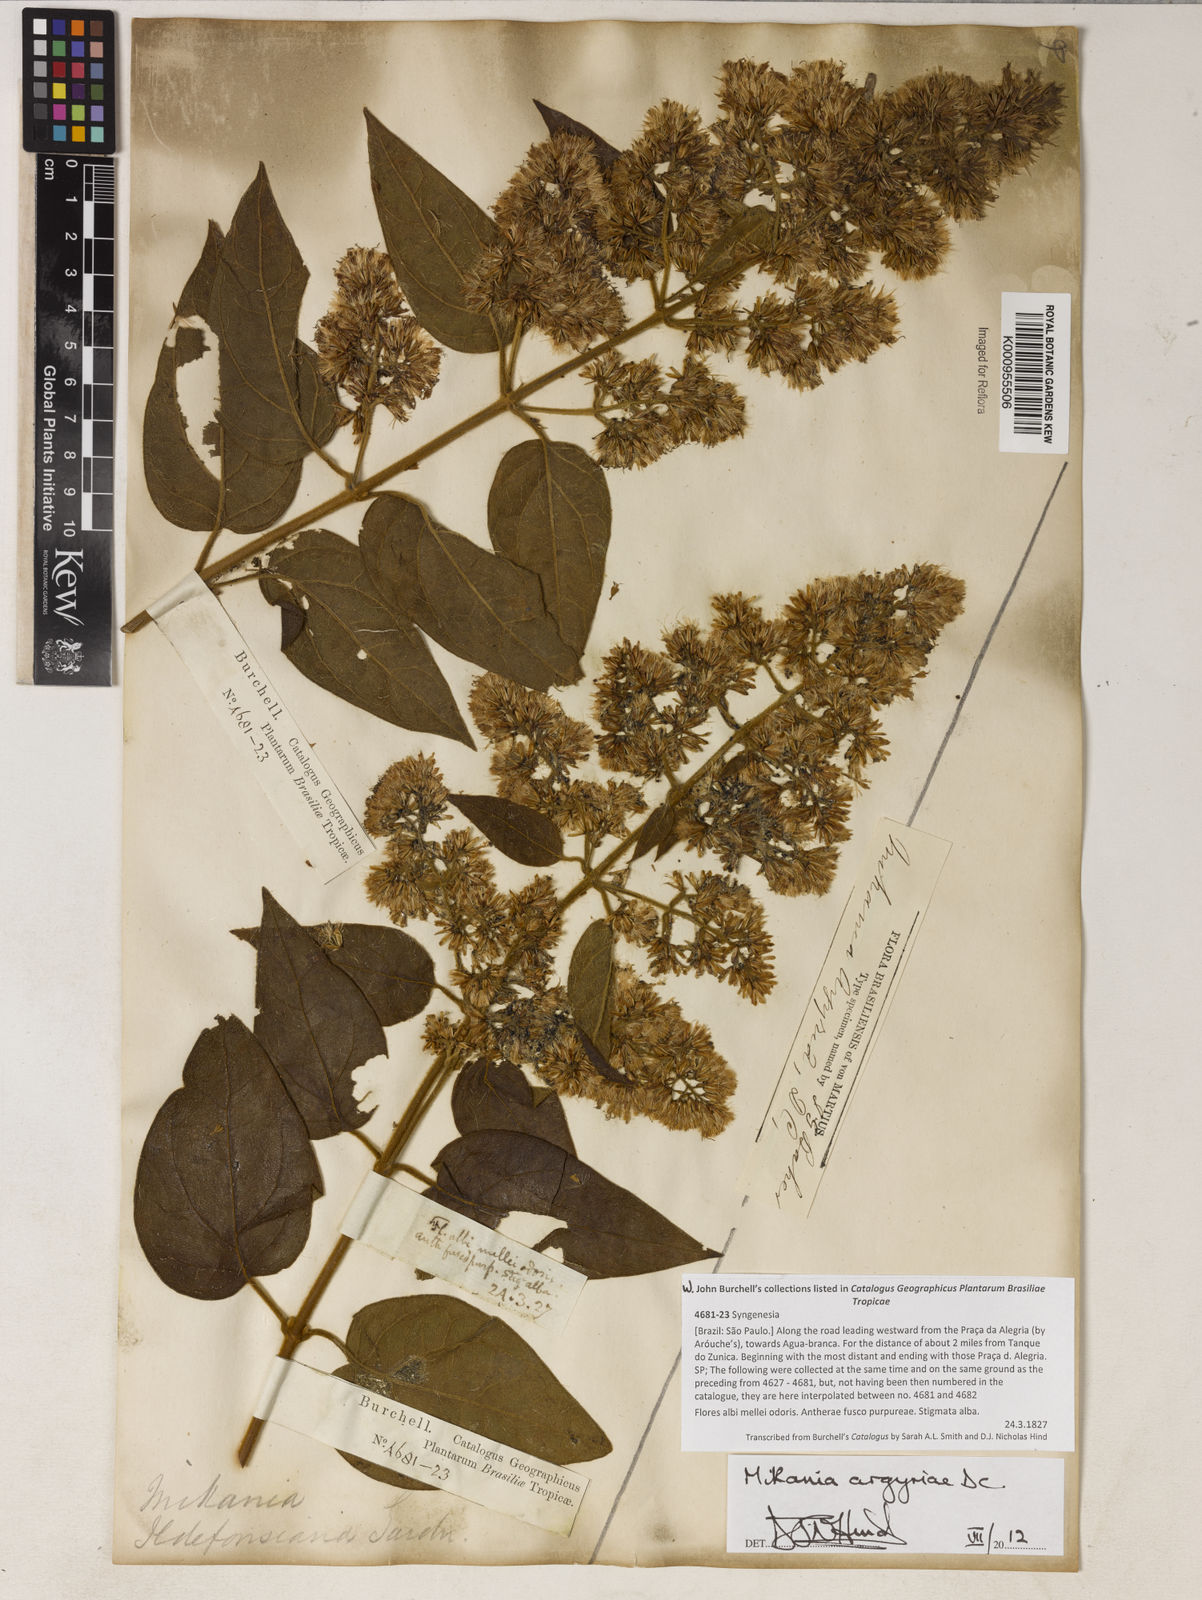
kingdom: Plantae
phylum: Tracheophyta
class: Magnoliopsida
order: Asterales
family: Asteraceae
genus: Mikania
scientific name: Mikania argyreiae
